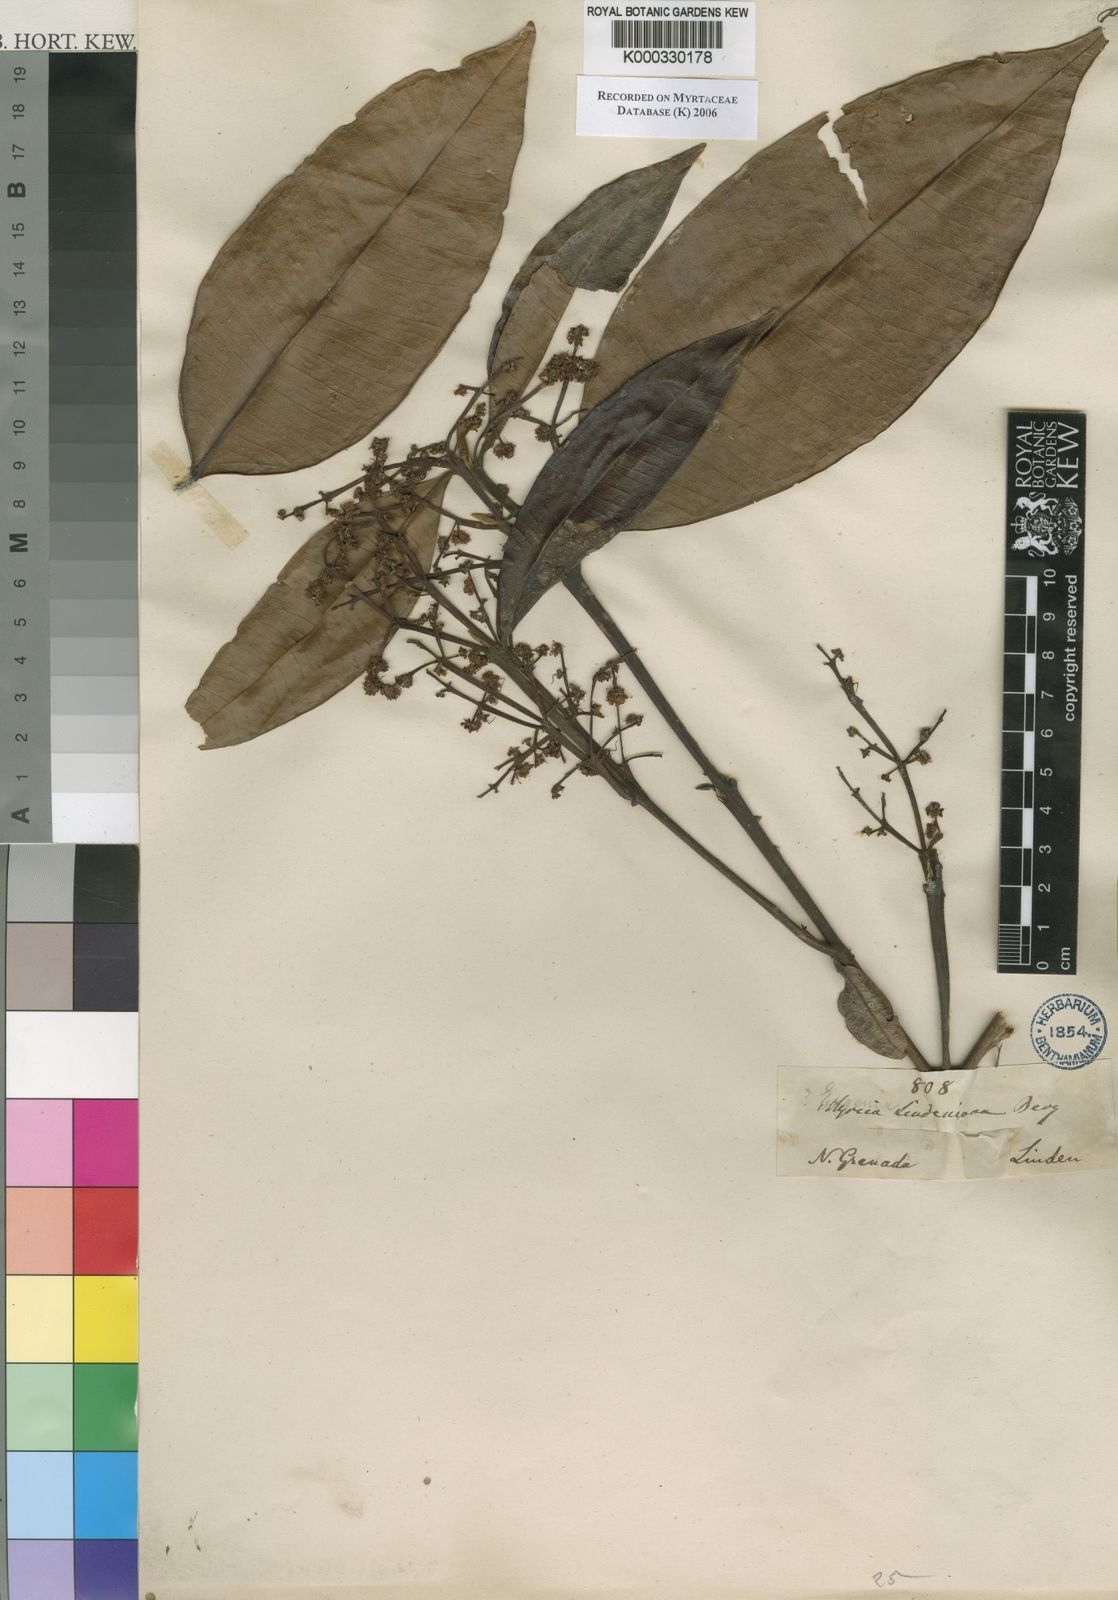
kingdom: Plantae
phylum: Tracheophyta
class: Magnoliopsida
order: Myrtales
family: Myrtaceae
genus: Myrcia
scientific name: Myrcia fenzliana
